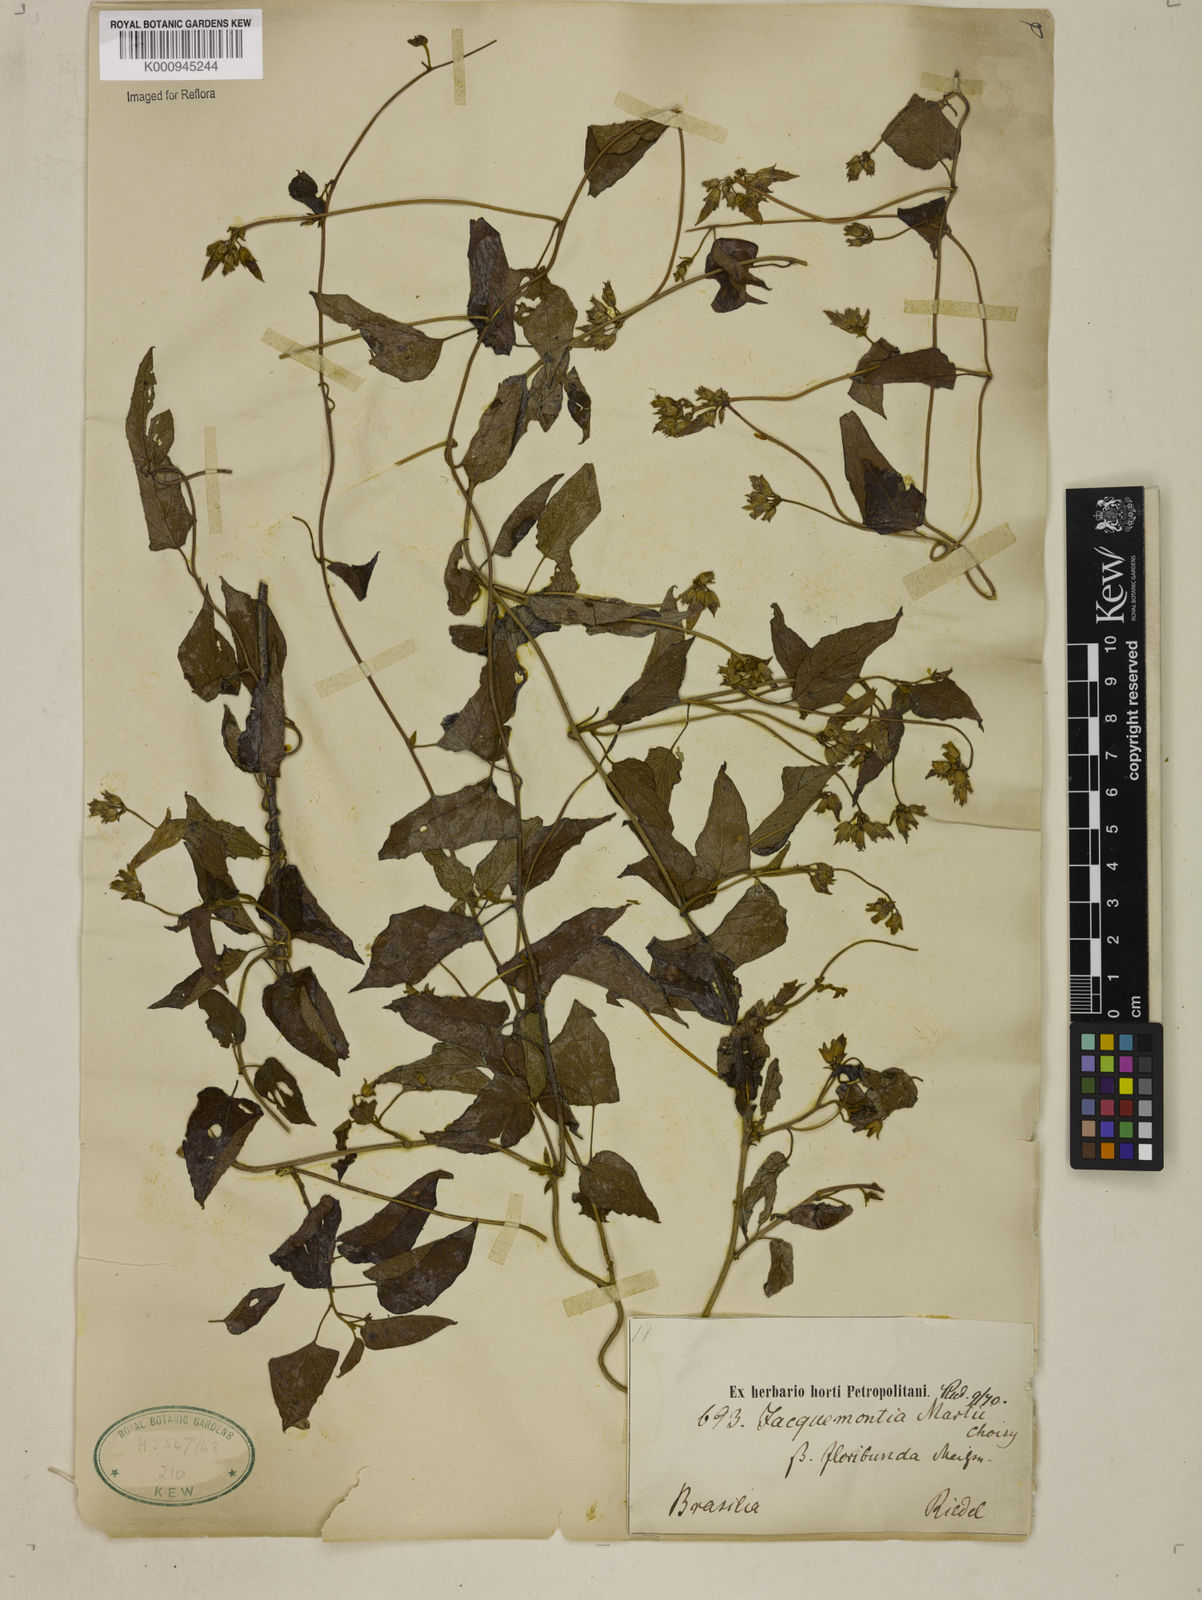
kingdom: Plantae
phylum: Tracheophyta
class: Magnoliopsida
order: Solanales
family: Convolvulaceae
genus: Jacquemontia
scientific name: Jacquemontia martii
